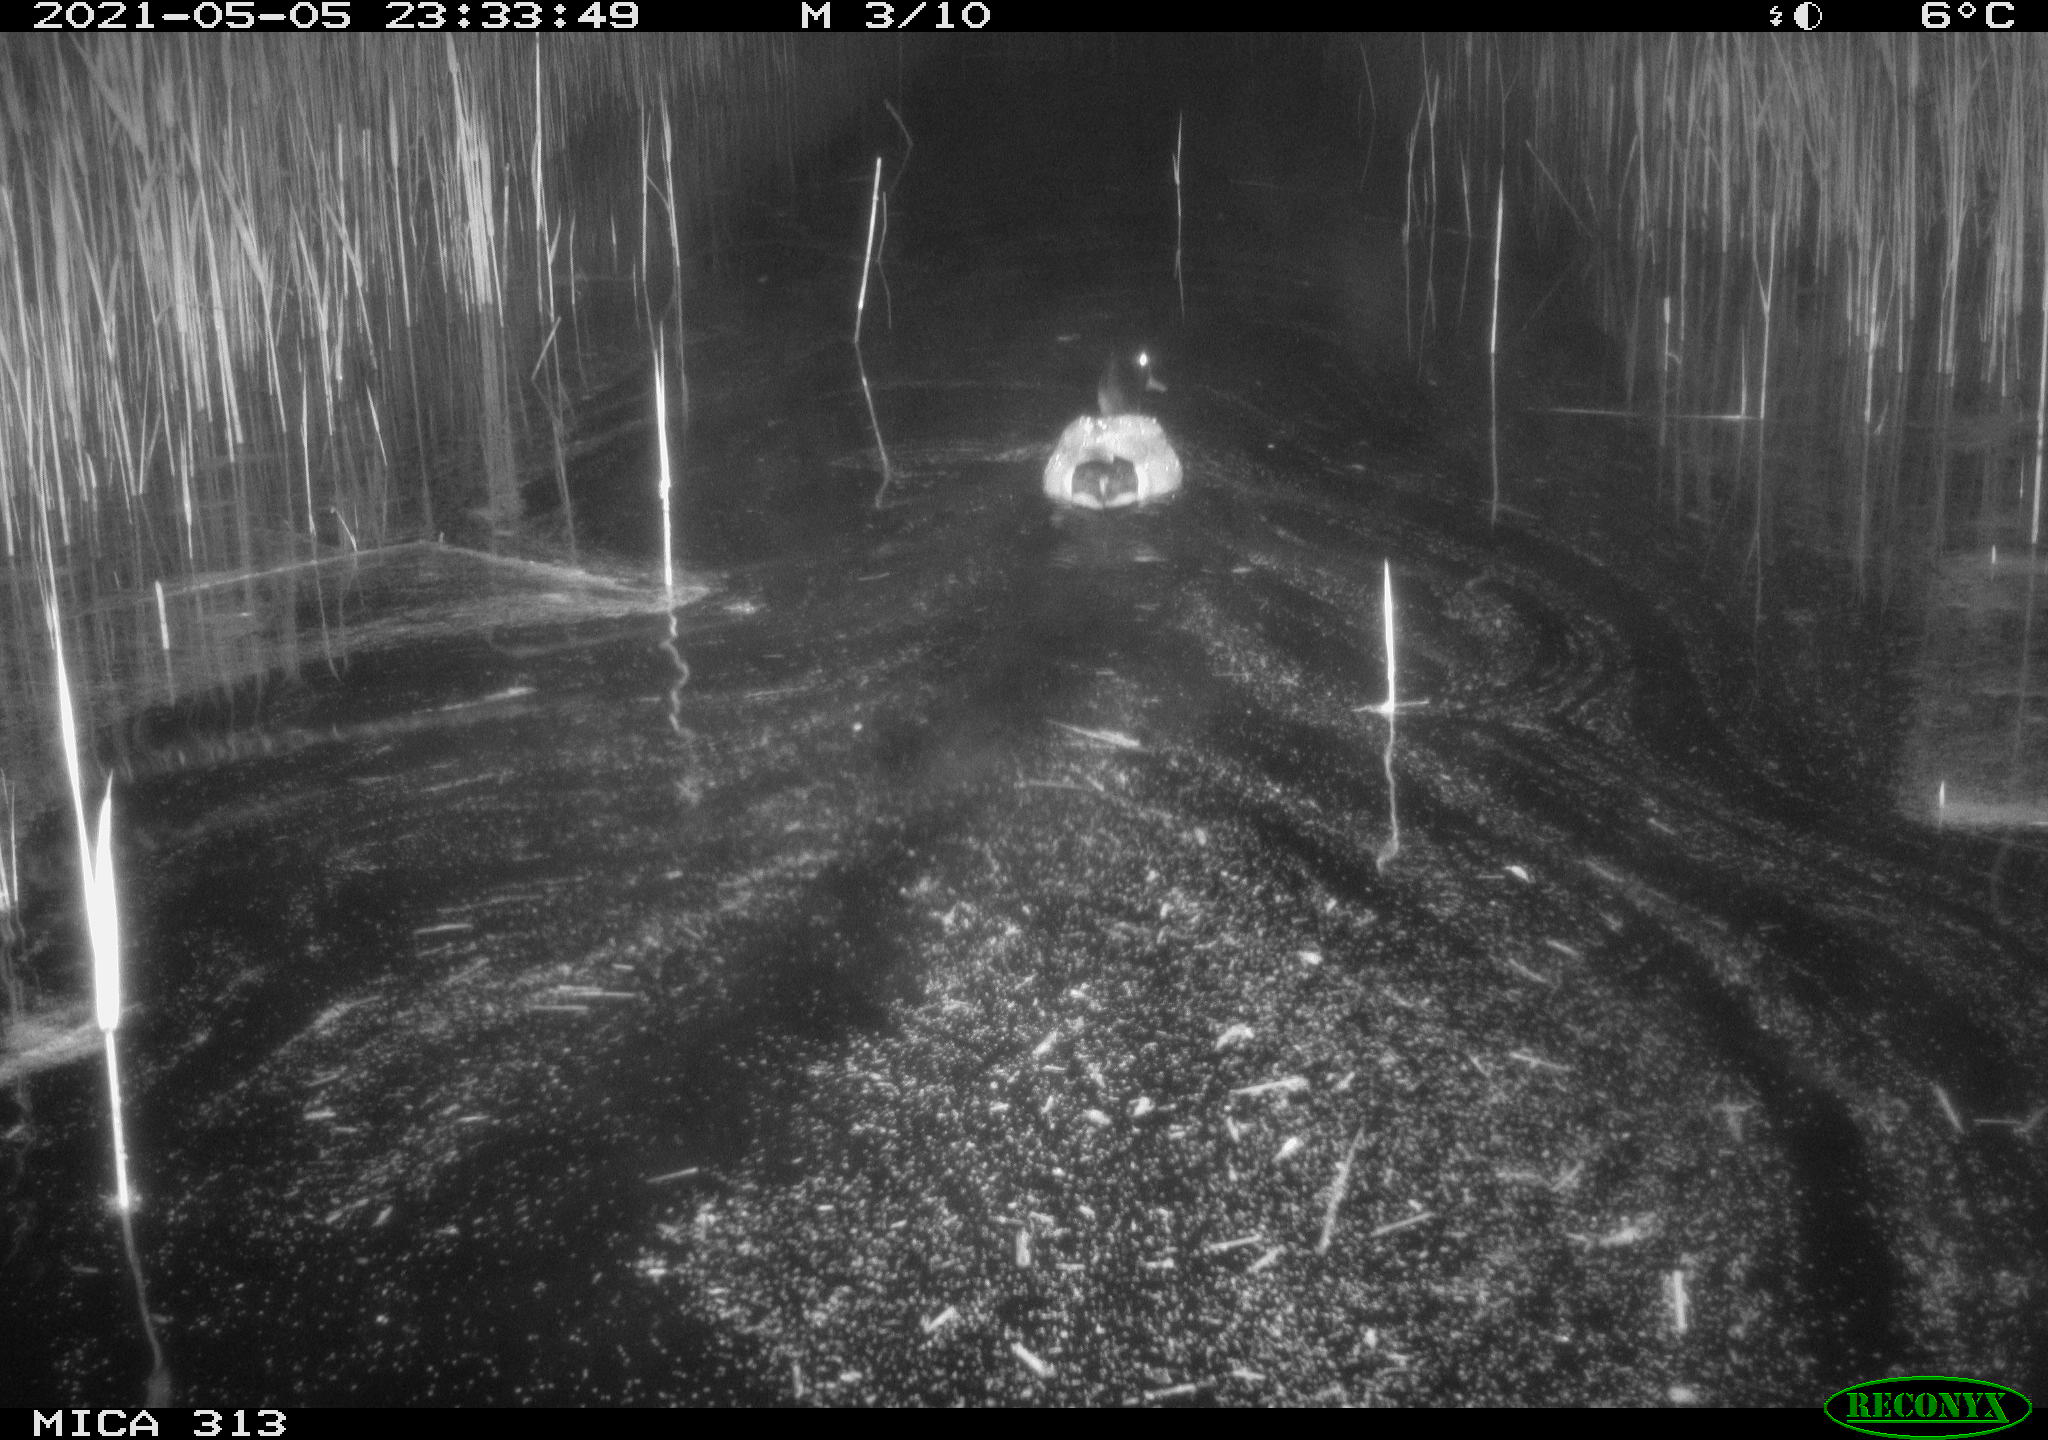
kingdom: Animalia
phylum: Chordata
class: Aves
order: Anseriformes
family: Anatidae
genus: Anas
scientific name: Anas platyrhynchos
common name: Mallard
